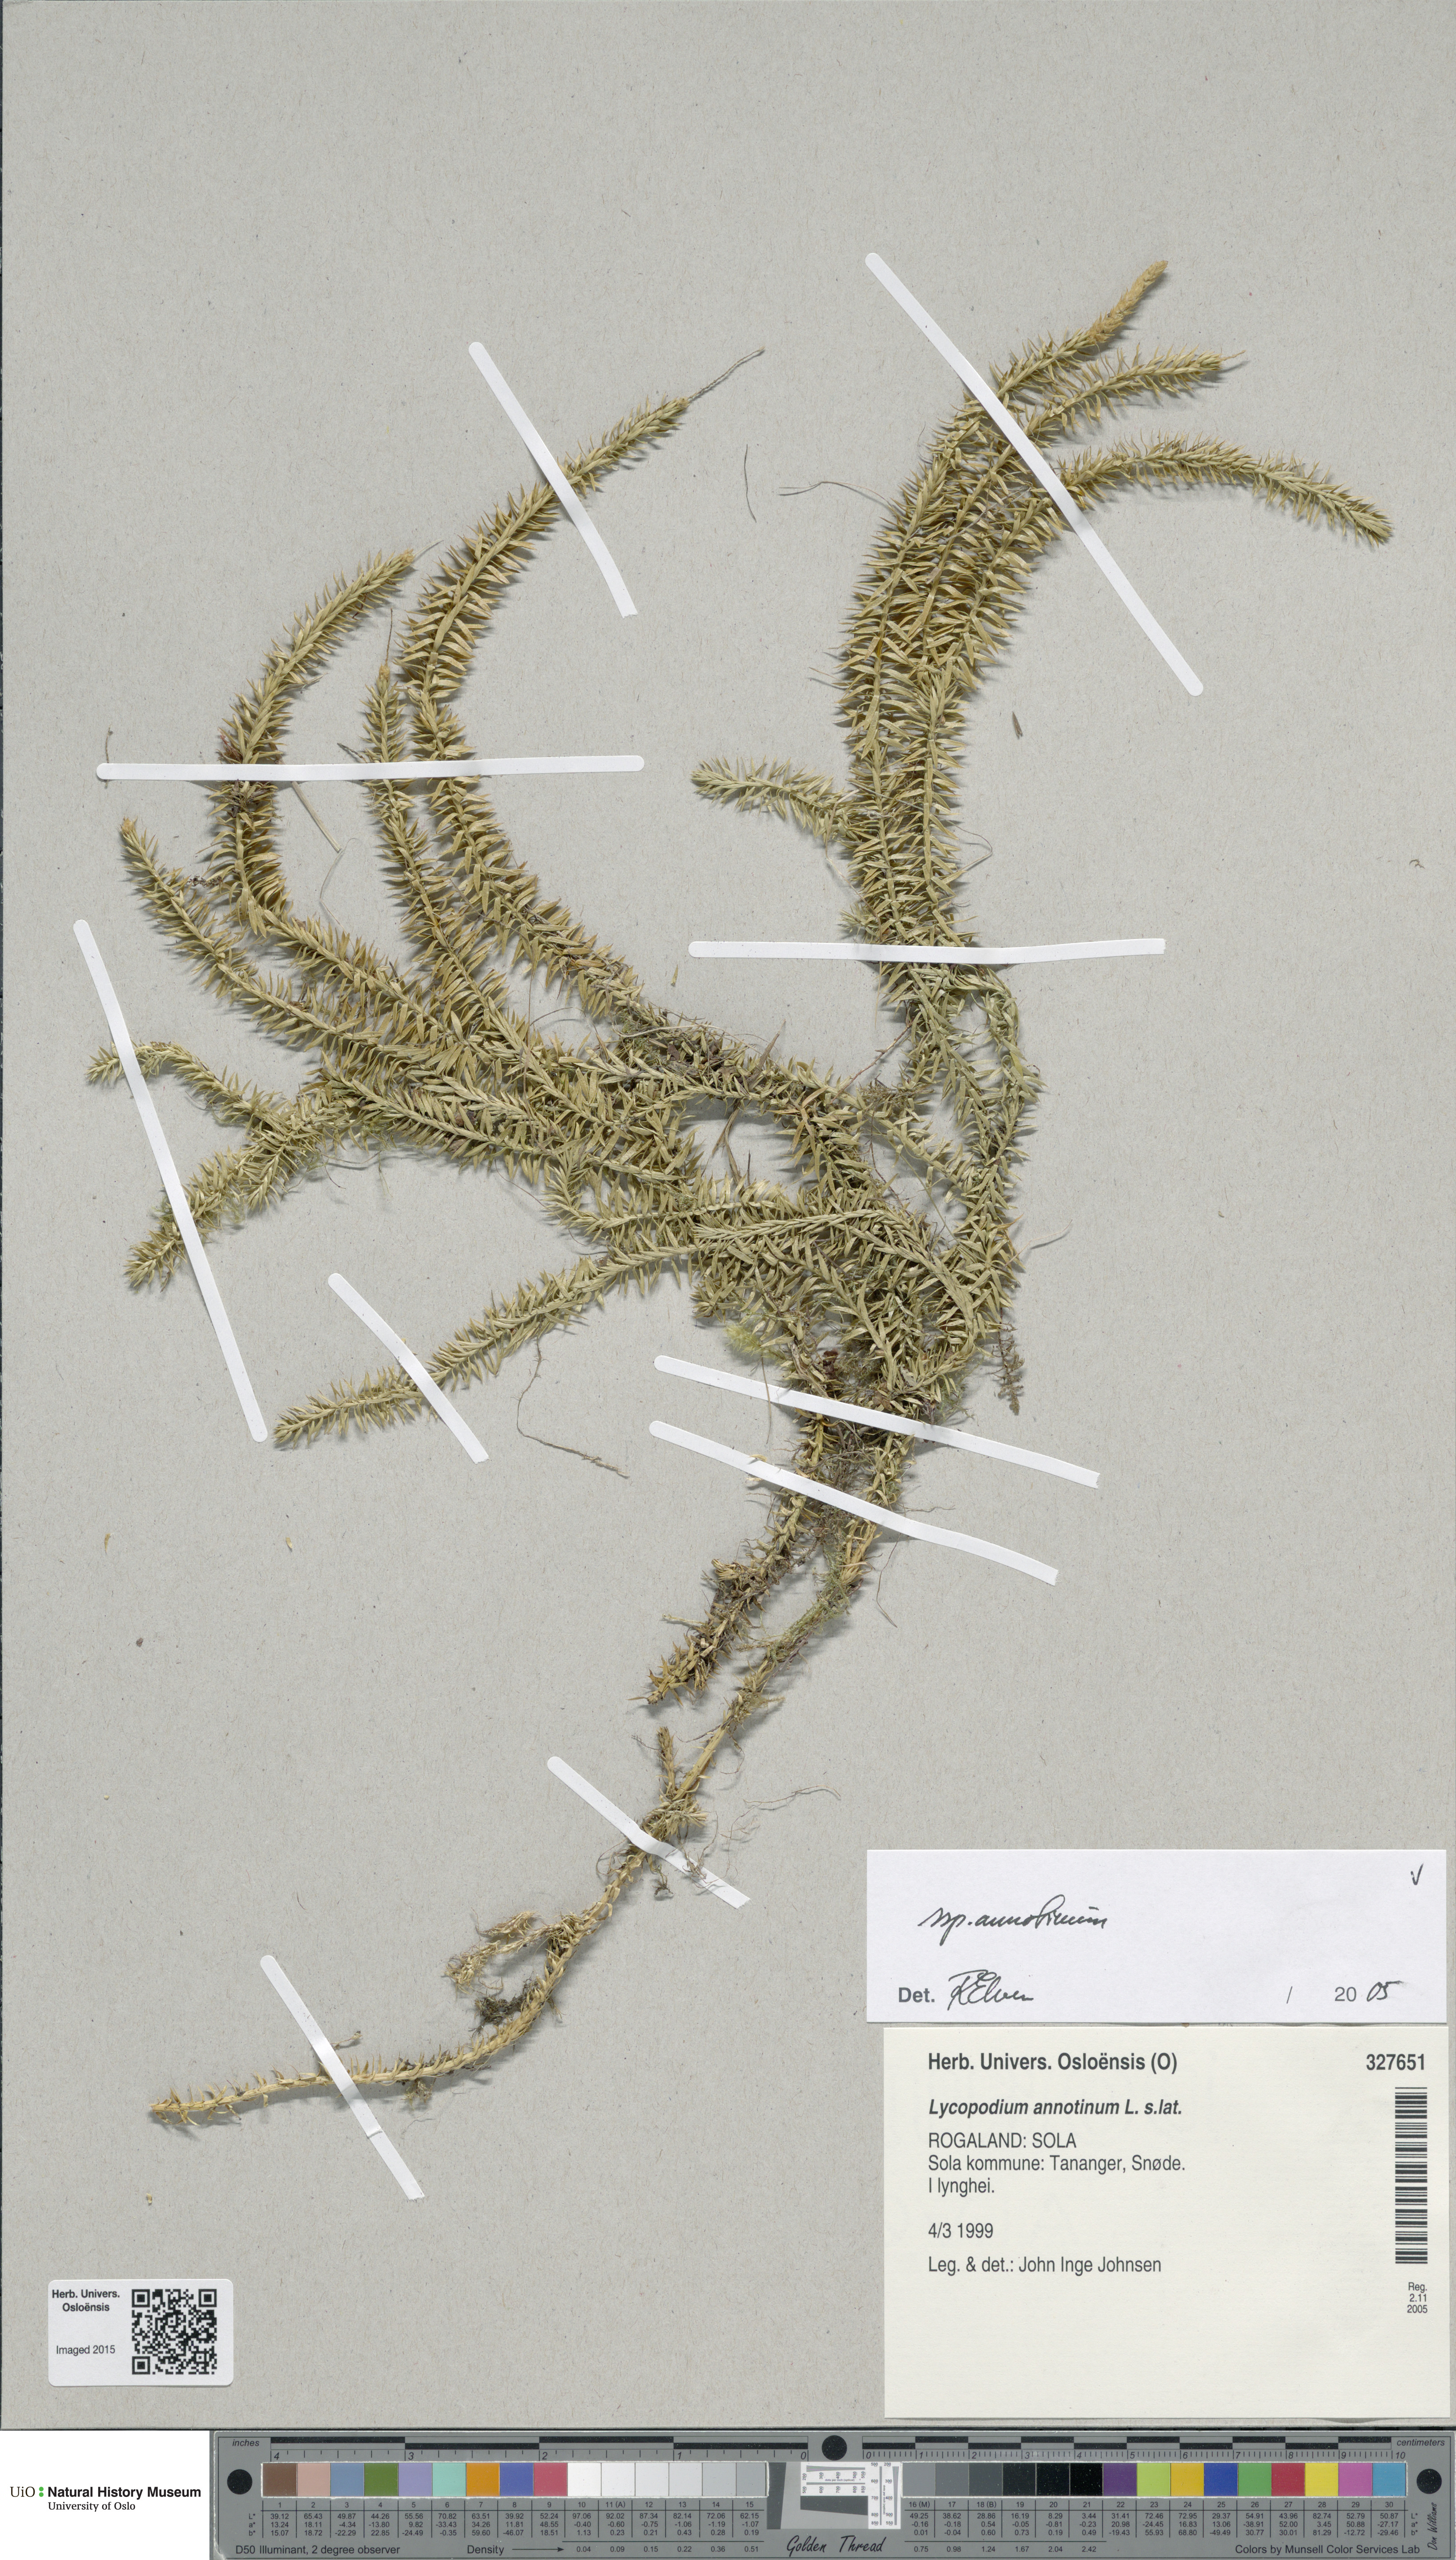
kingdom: Plantae
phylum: Tracheophyta
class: Lycopodiopsida
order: Lycopodiales
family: Lycopodiaceae
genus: Spinulum
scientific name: Spinulum annotinum
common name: Interrupted club-moss
